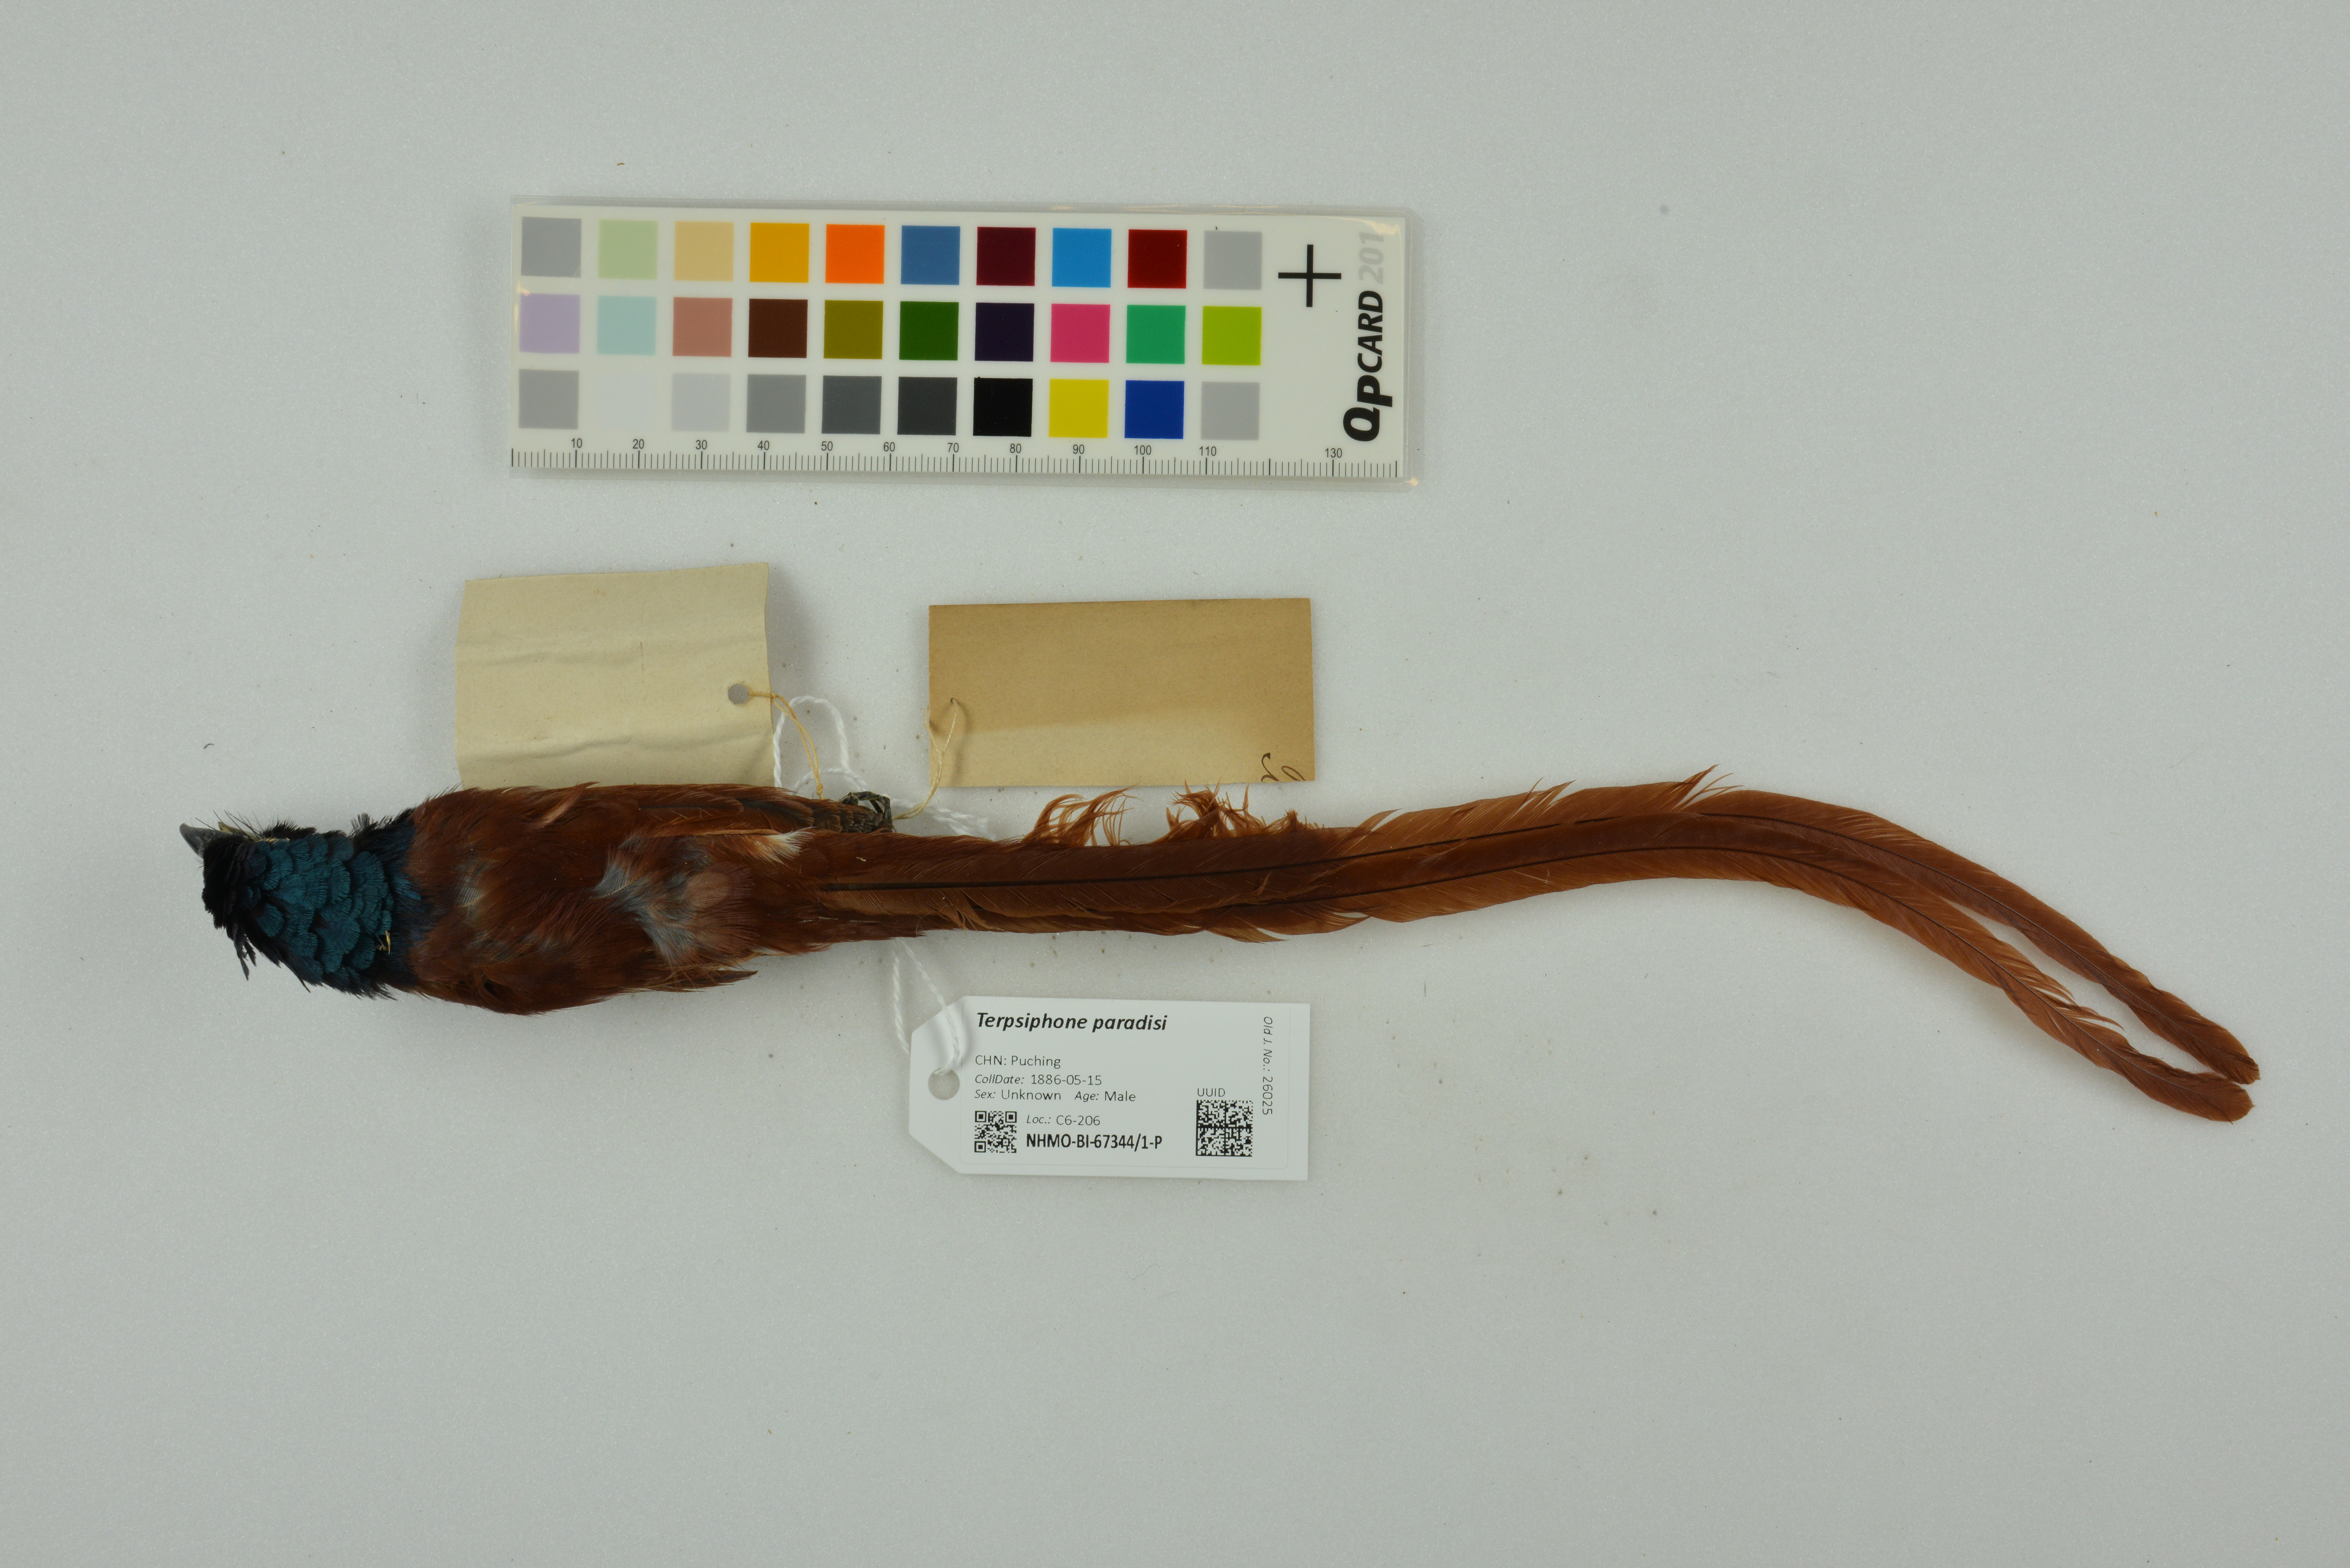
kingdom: Animalia
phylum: Chordata
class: Aves
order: Passeriformes
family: Monarchidae
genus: Terpsiphone
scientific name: Terpsiphone paradisi
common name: Indian paradise flycatcher
